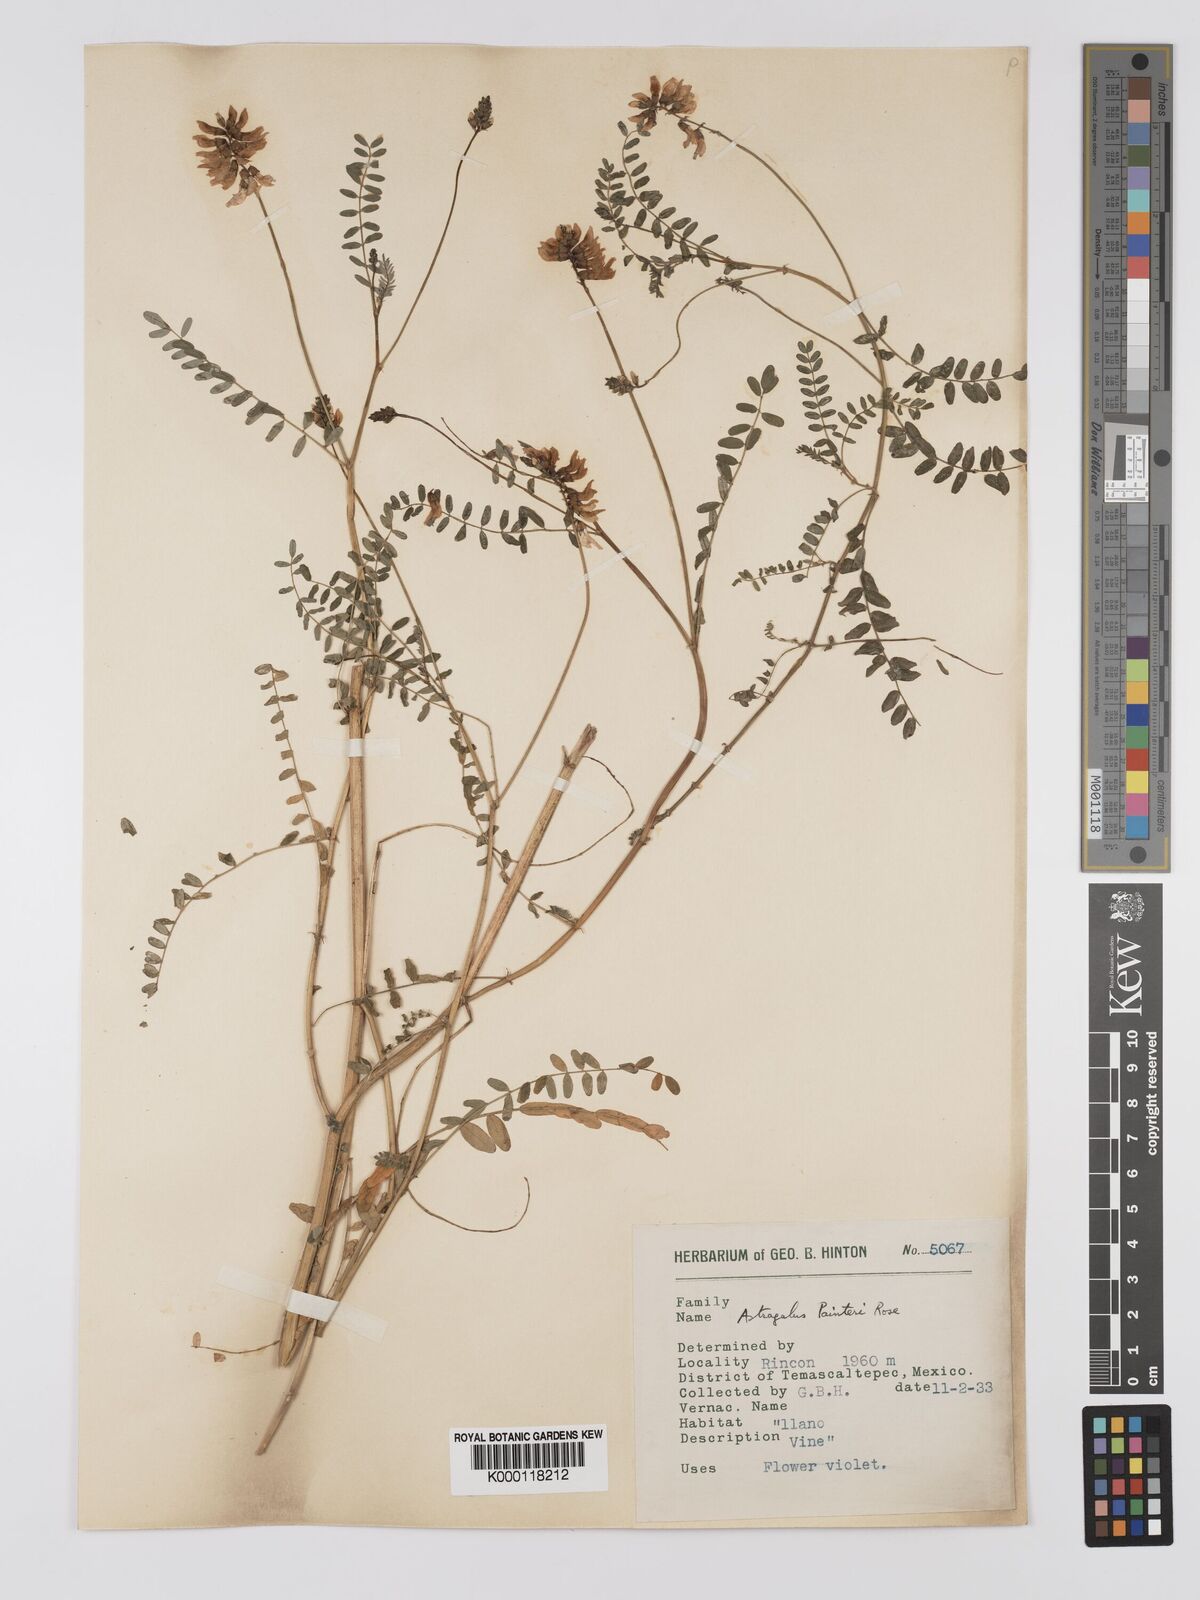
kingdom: Plantae
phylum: Tracheophyta
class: Magnoliopsida
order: Fabales
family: Fabaceae
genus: Astragalus
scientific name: Astragalus
